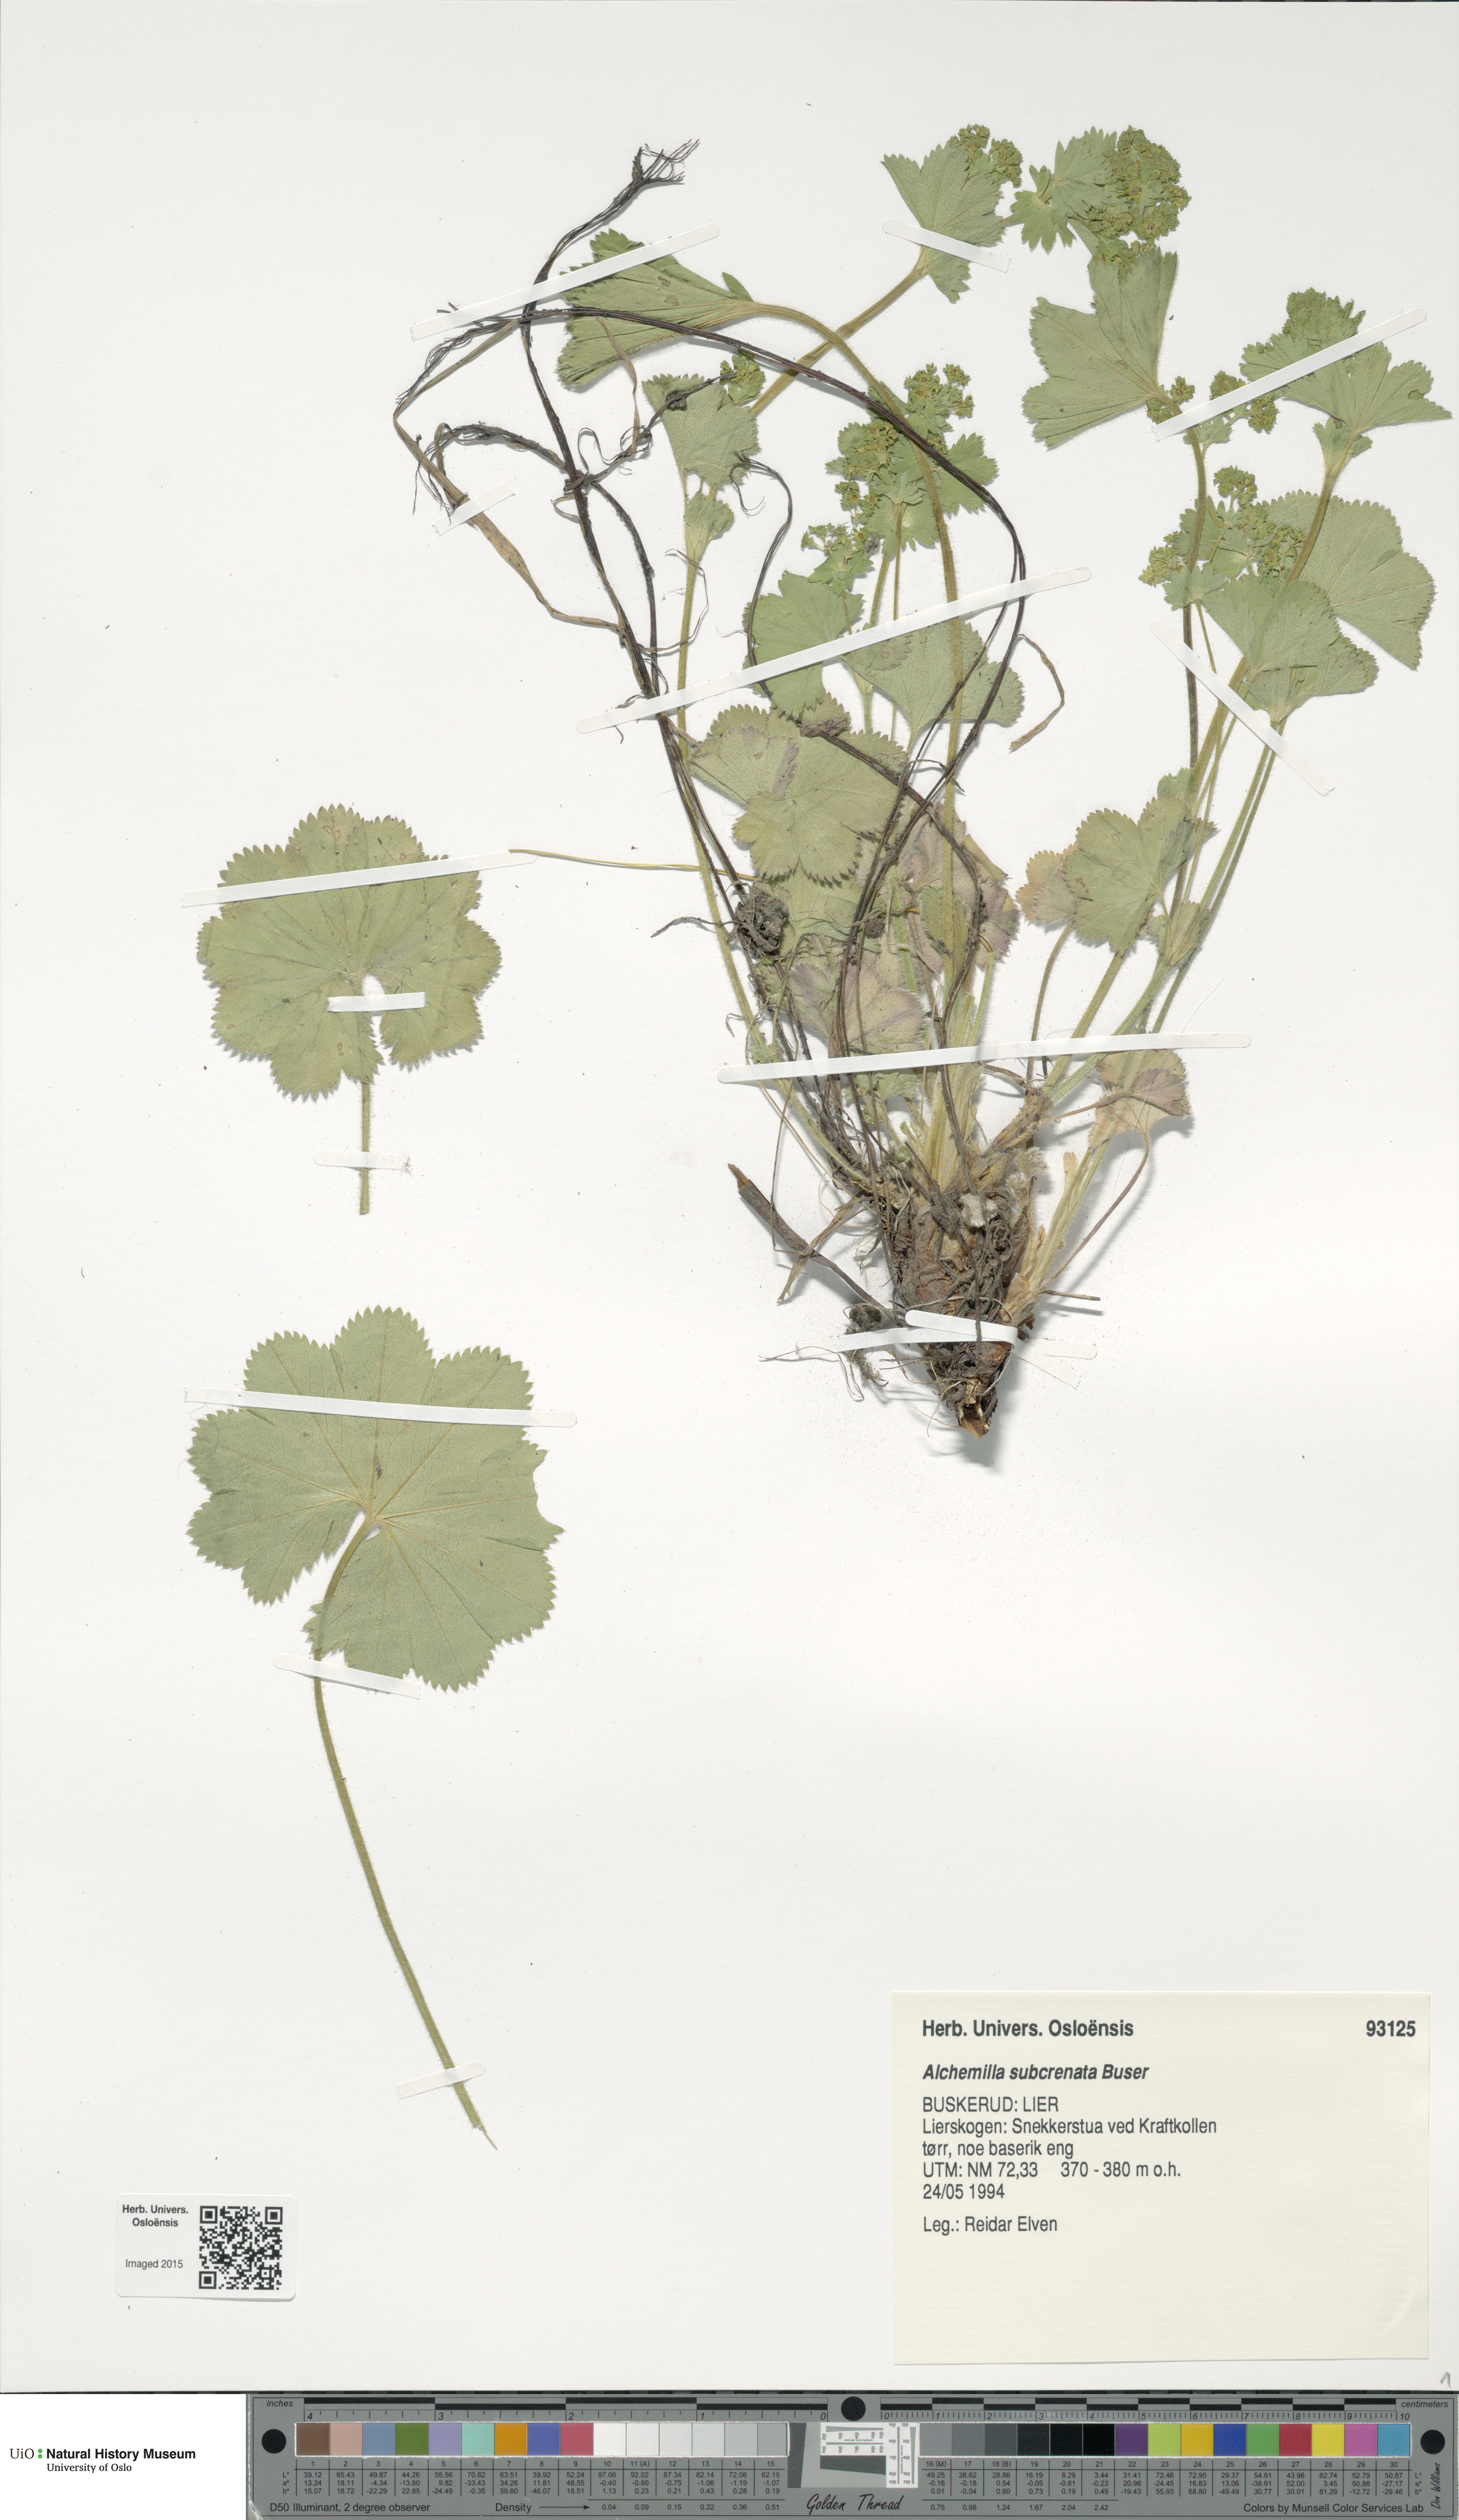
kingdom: Plantae
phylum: Tracheophyta
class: Magnoliopsida
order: Rosales
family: Rosaceae
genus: Alchemilla
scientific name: Alchemilla subcrenata
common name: Broadtooth lady's mantle
